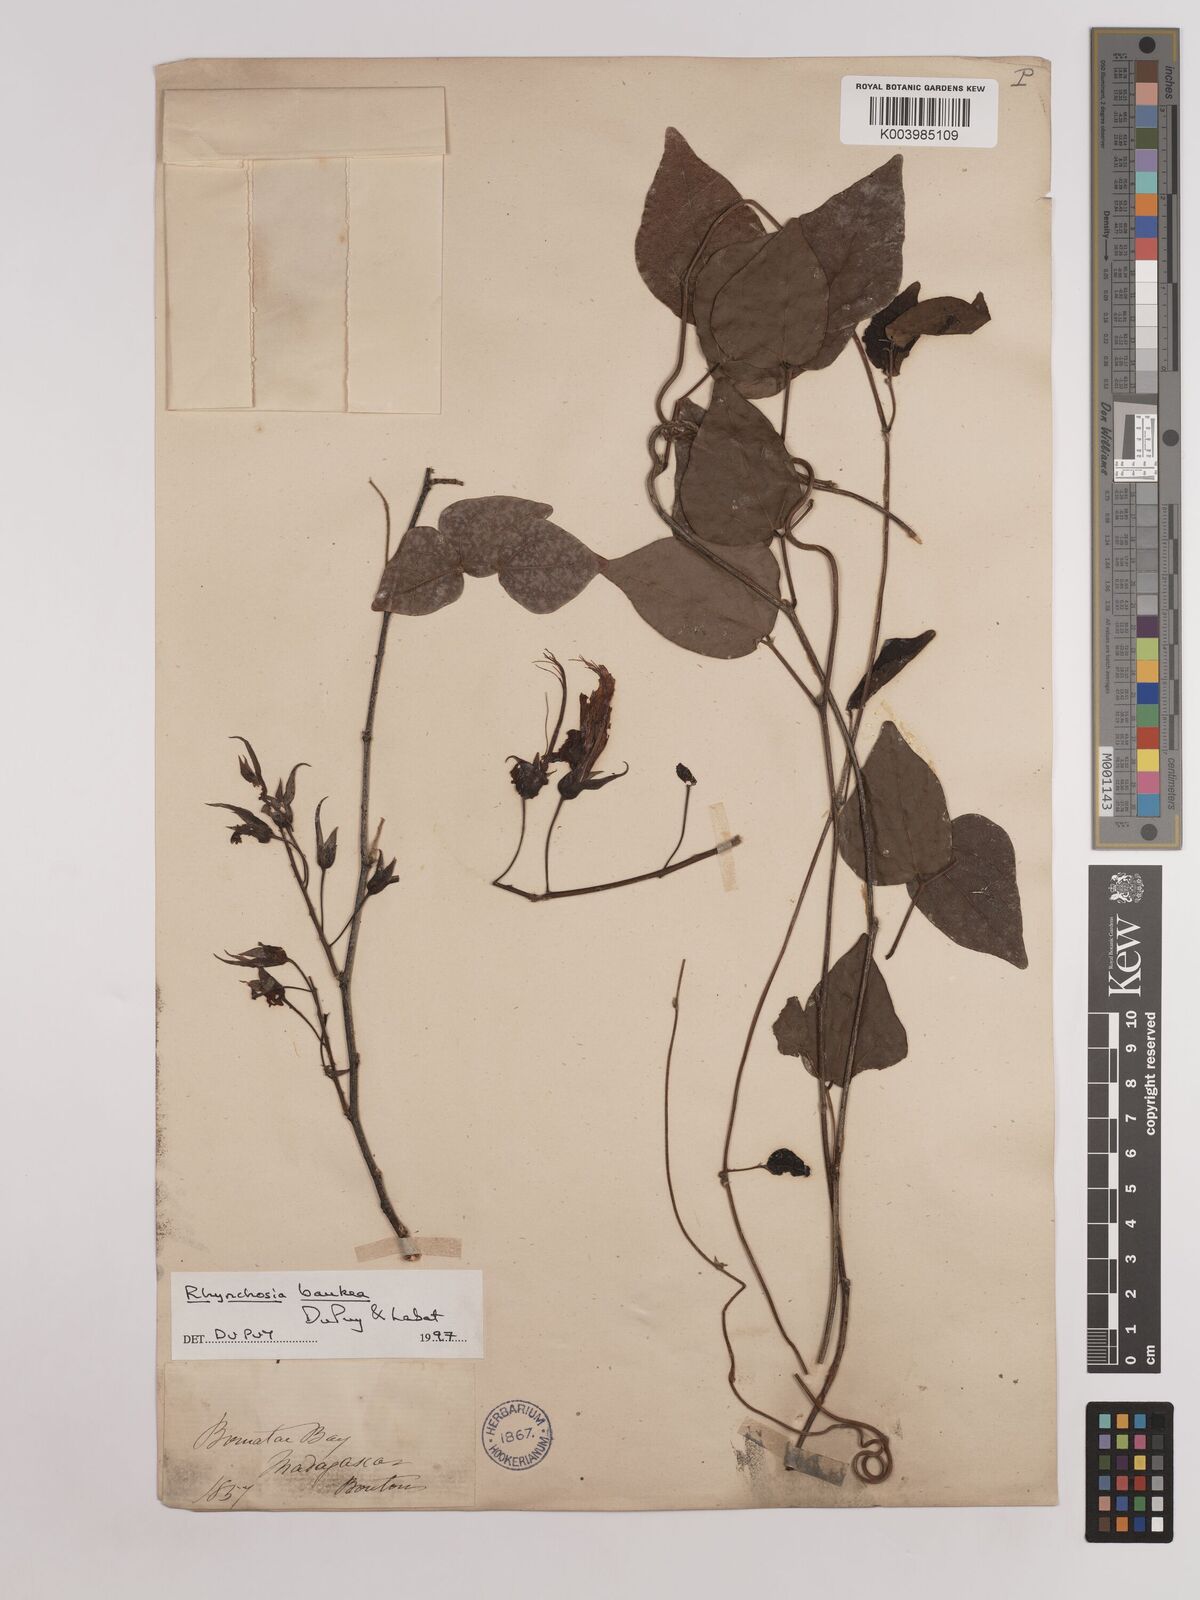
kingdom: Plantae
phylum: Tracheophyta
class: Magnoliopsida
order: Fabales
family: Fabaceae
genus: Rhynchosia
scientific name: Rhynchosia baukea
